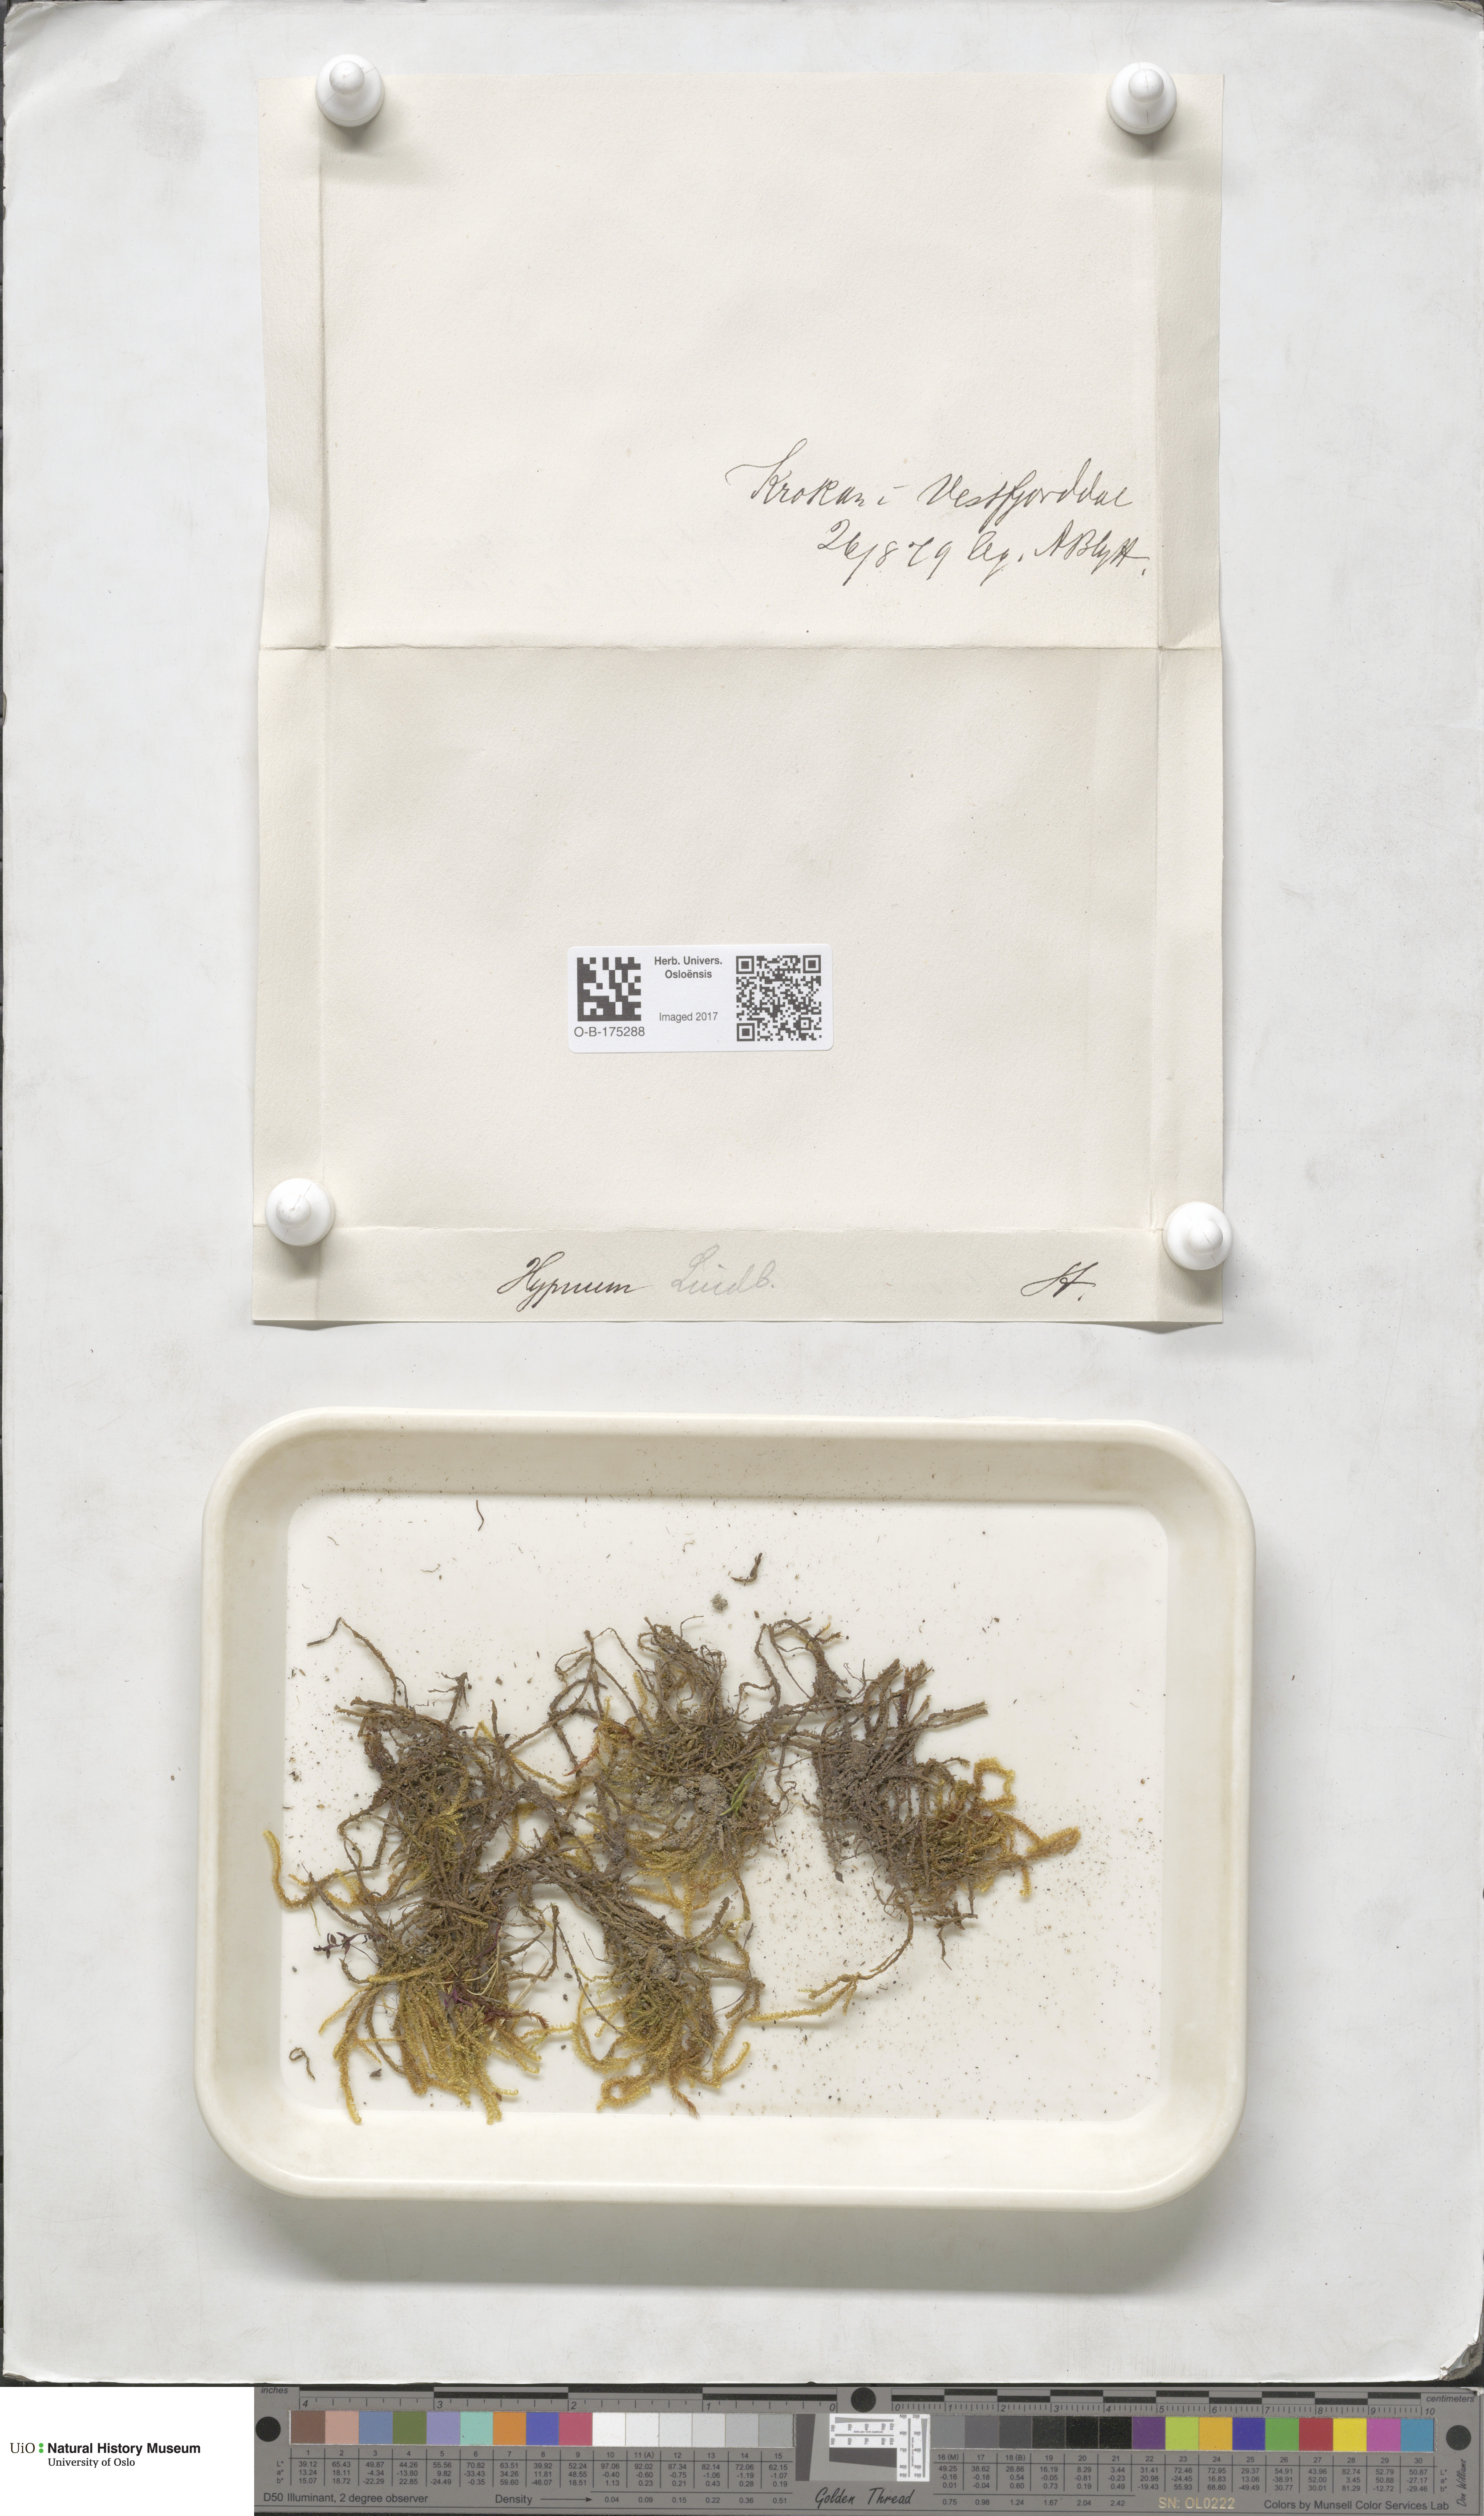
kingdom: Plantae
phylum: Bryophyta
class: Bryopsida
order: Hypnales
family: Pylaisiaceae
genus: Calliergonella
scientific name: Calliergonella lindbergii
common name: Lindberg's plait-moss
